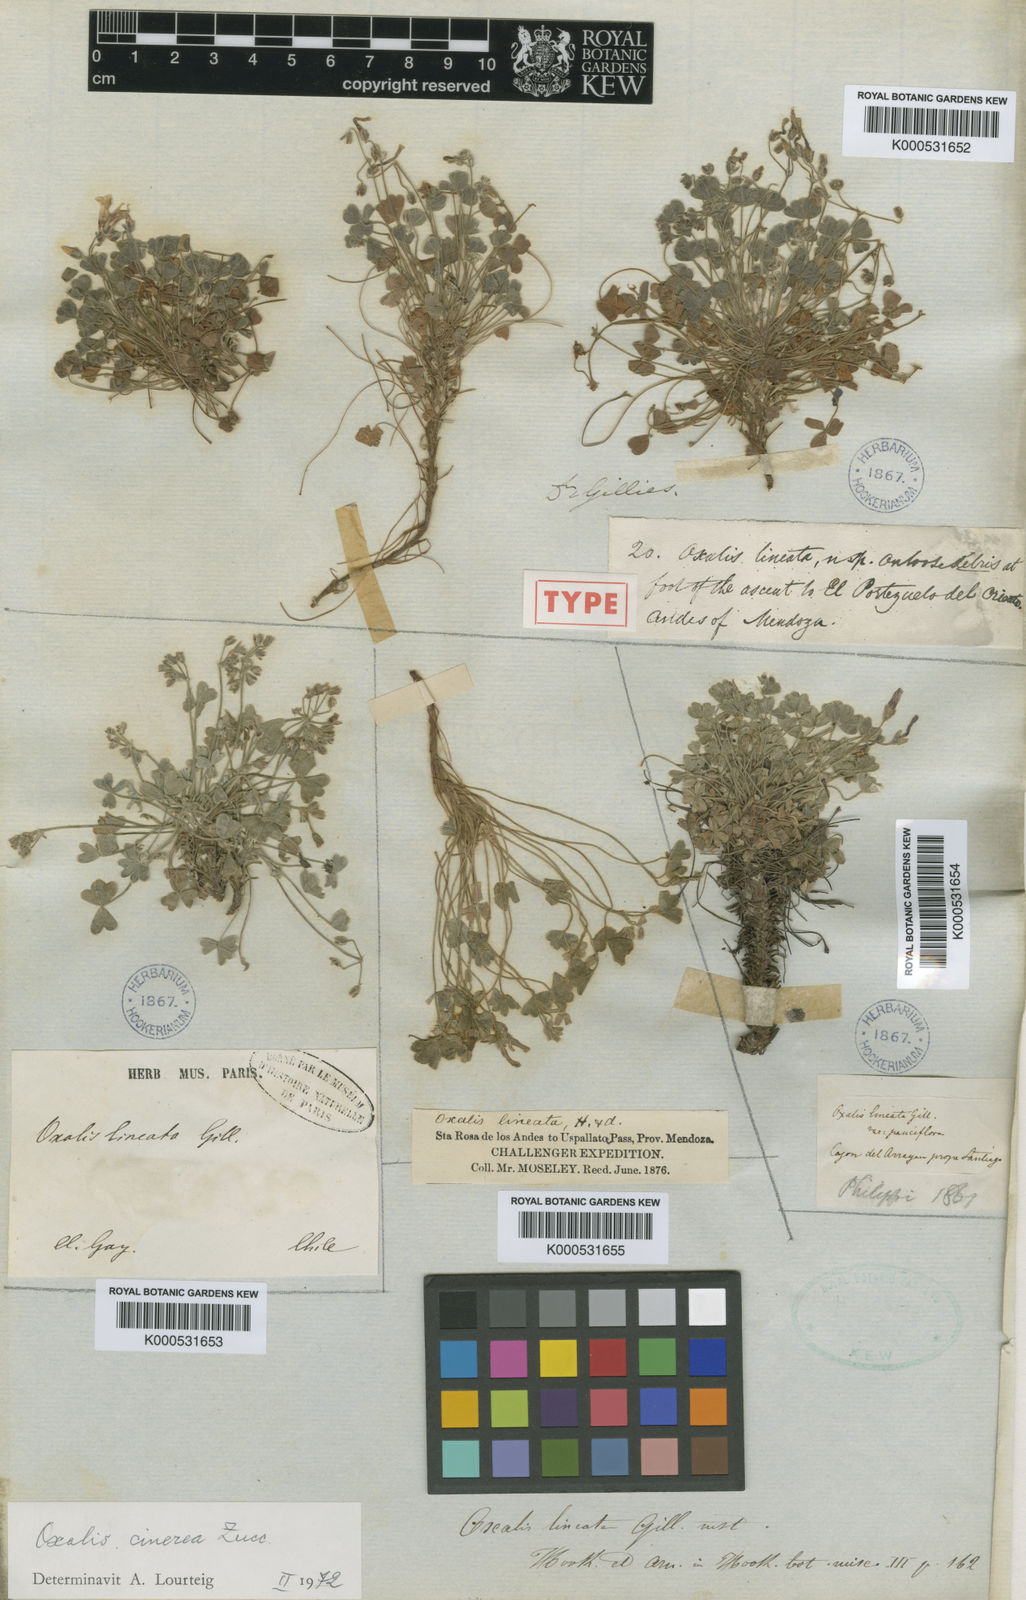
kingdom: Plantae
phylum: Tracheophyta
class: Magnoliopsida
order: Oxalidales
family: Oxalidaceae
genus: Oxalis
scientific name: Oxalis cinerea
